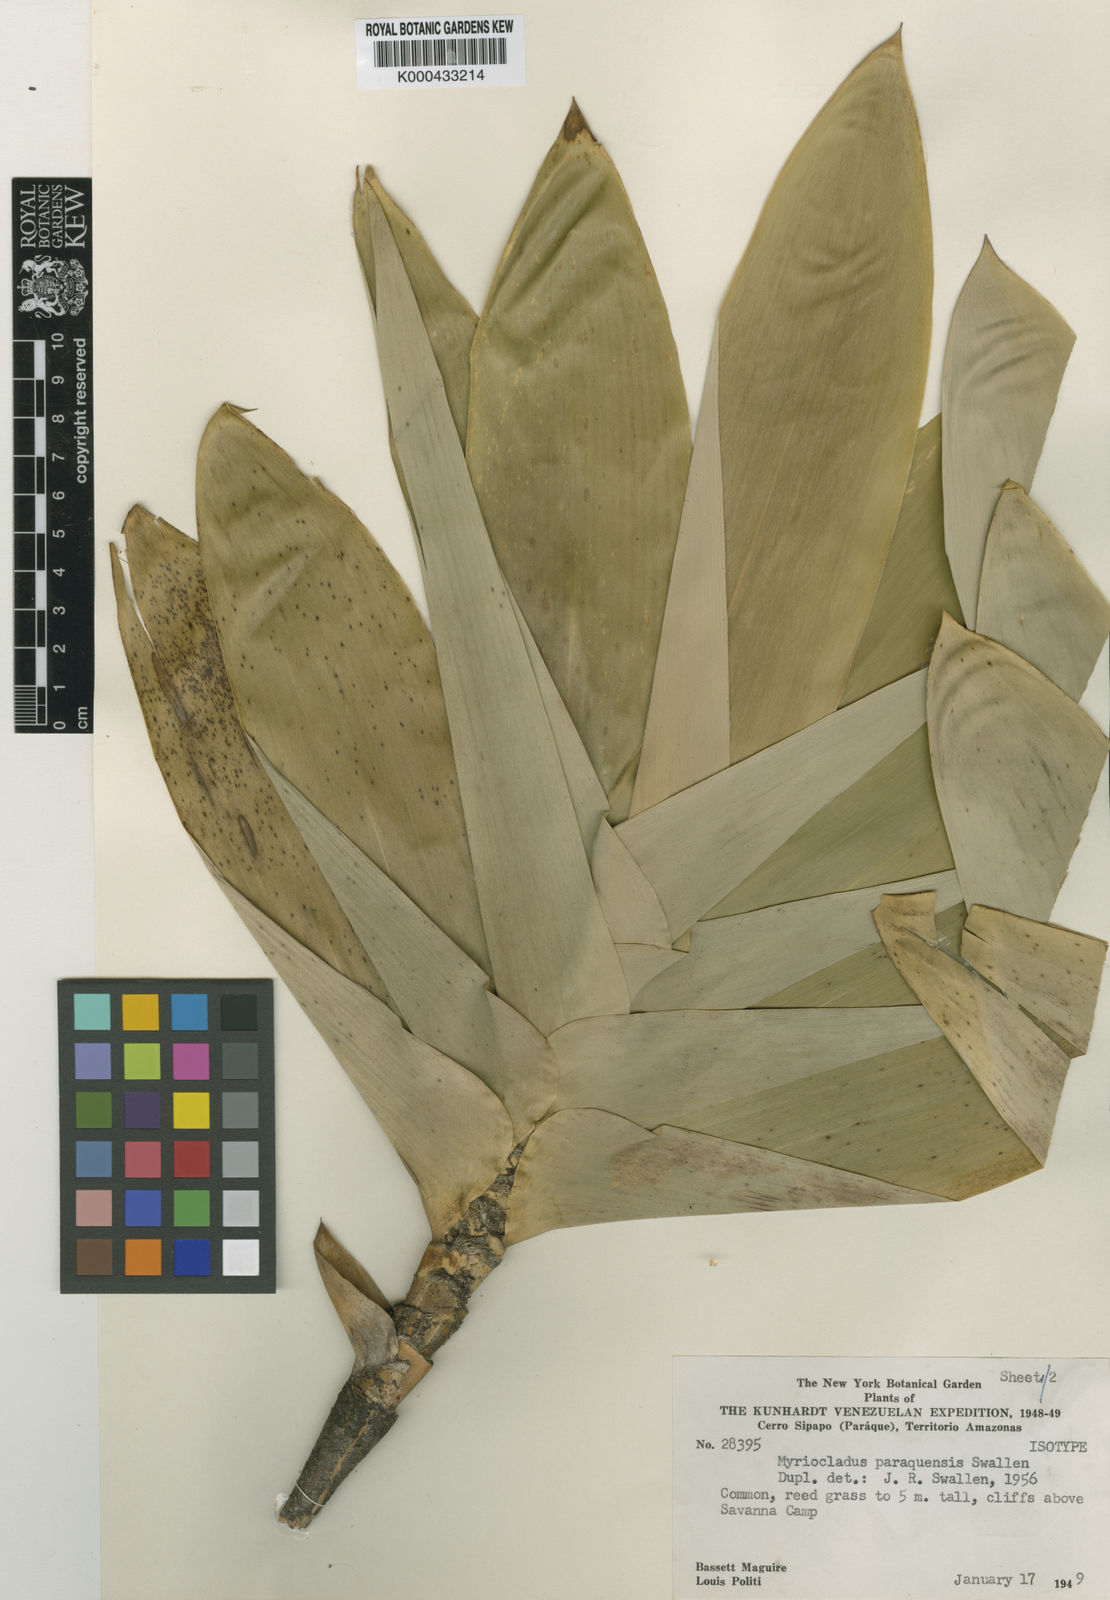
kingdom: Plantae
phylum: Tracheophyta
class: Liliopsida
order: Poales
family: Poaceae
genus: Myriocladus
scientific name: Myriocladus grandifolius
